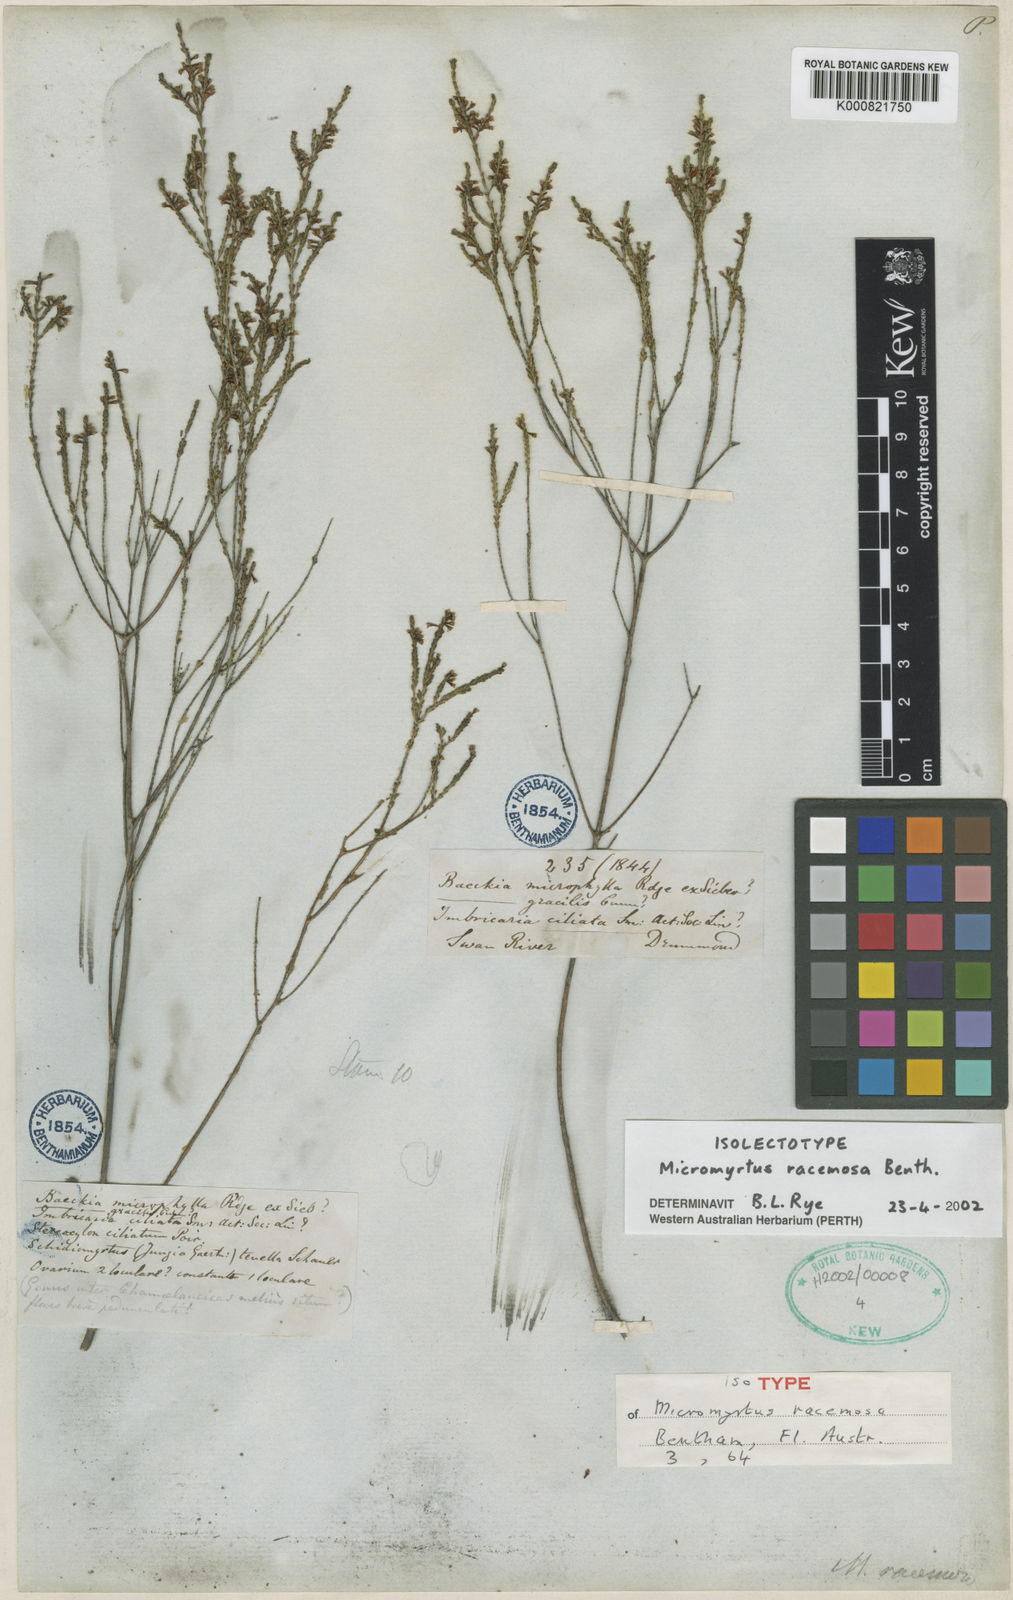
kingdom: Plantae
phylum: Tracheophyta
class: Magnoliopsida
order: Myrtales
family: Myrtaceae
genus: Micromyrtus
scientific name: Micromyrtus racemosa
